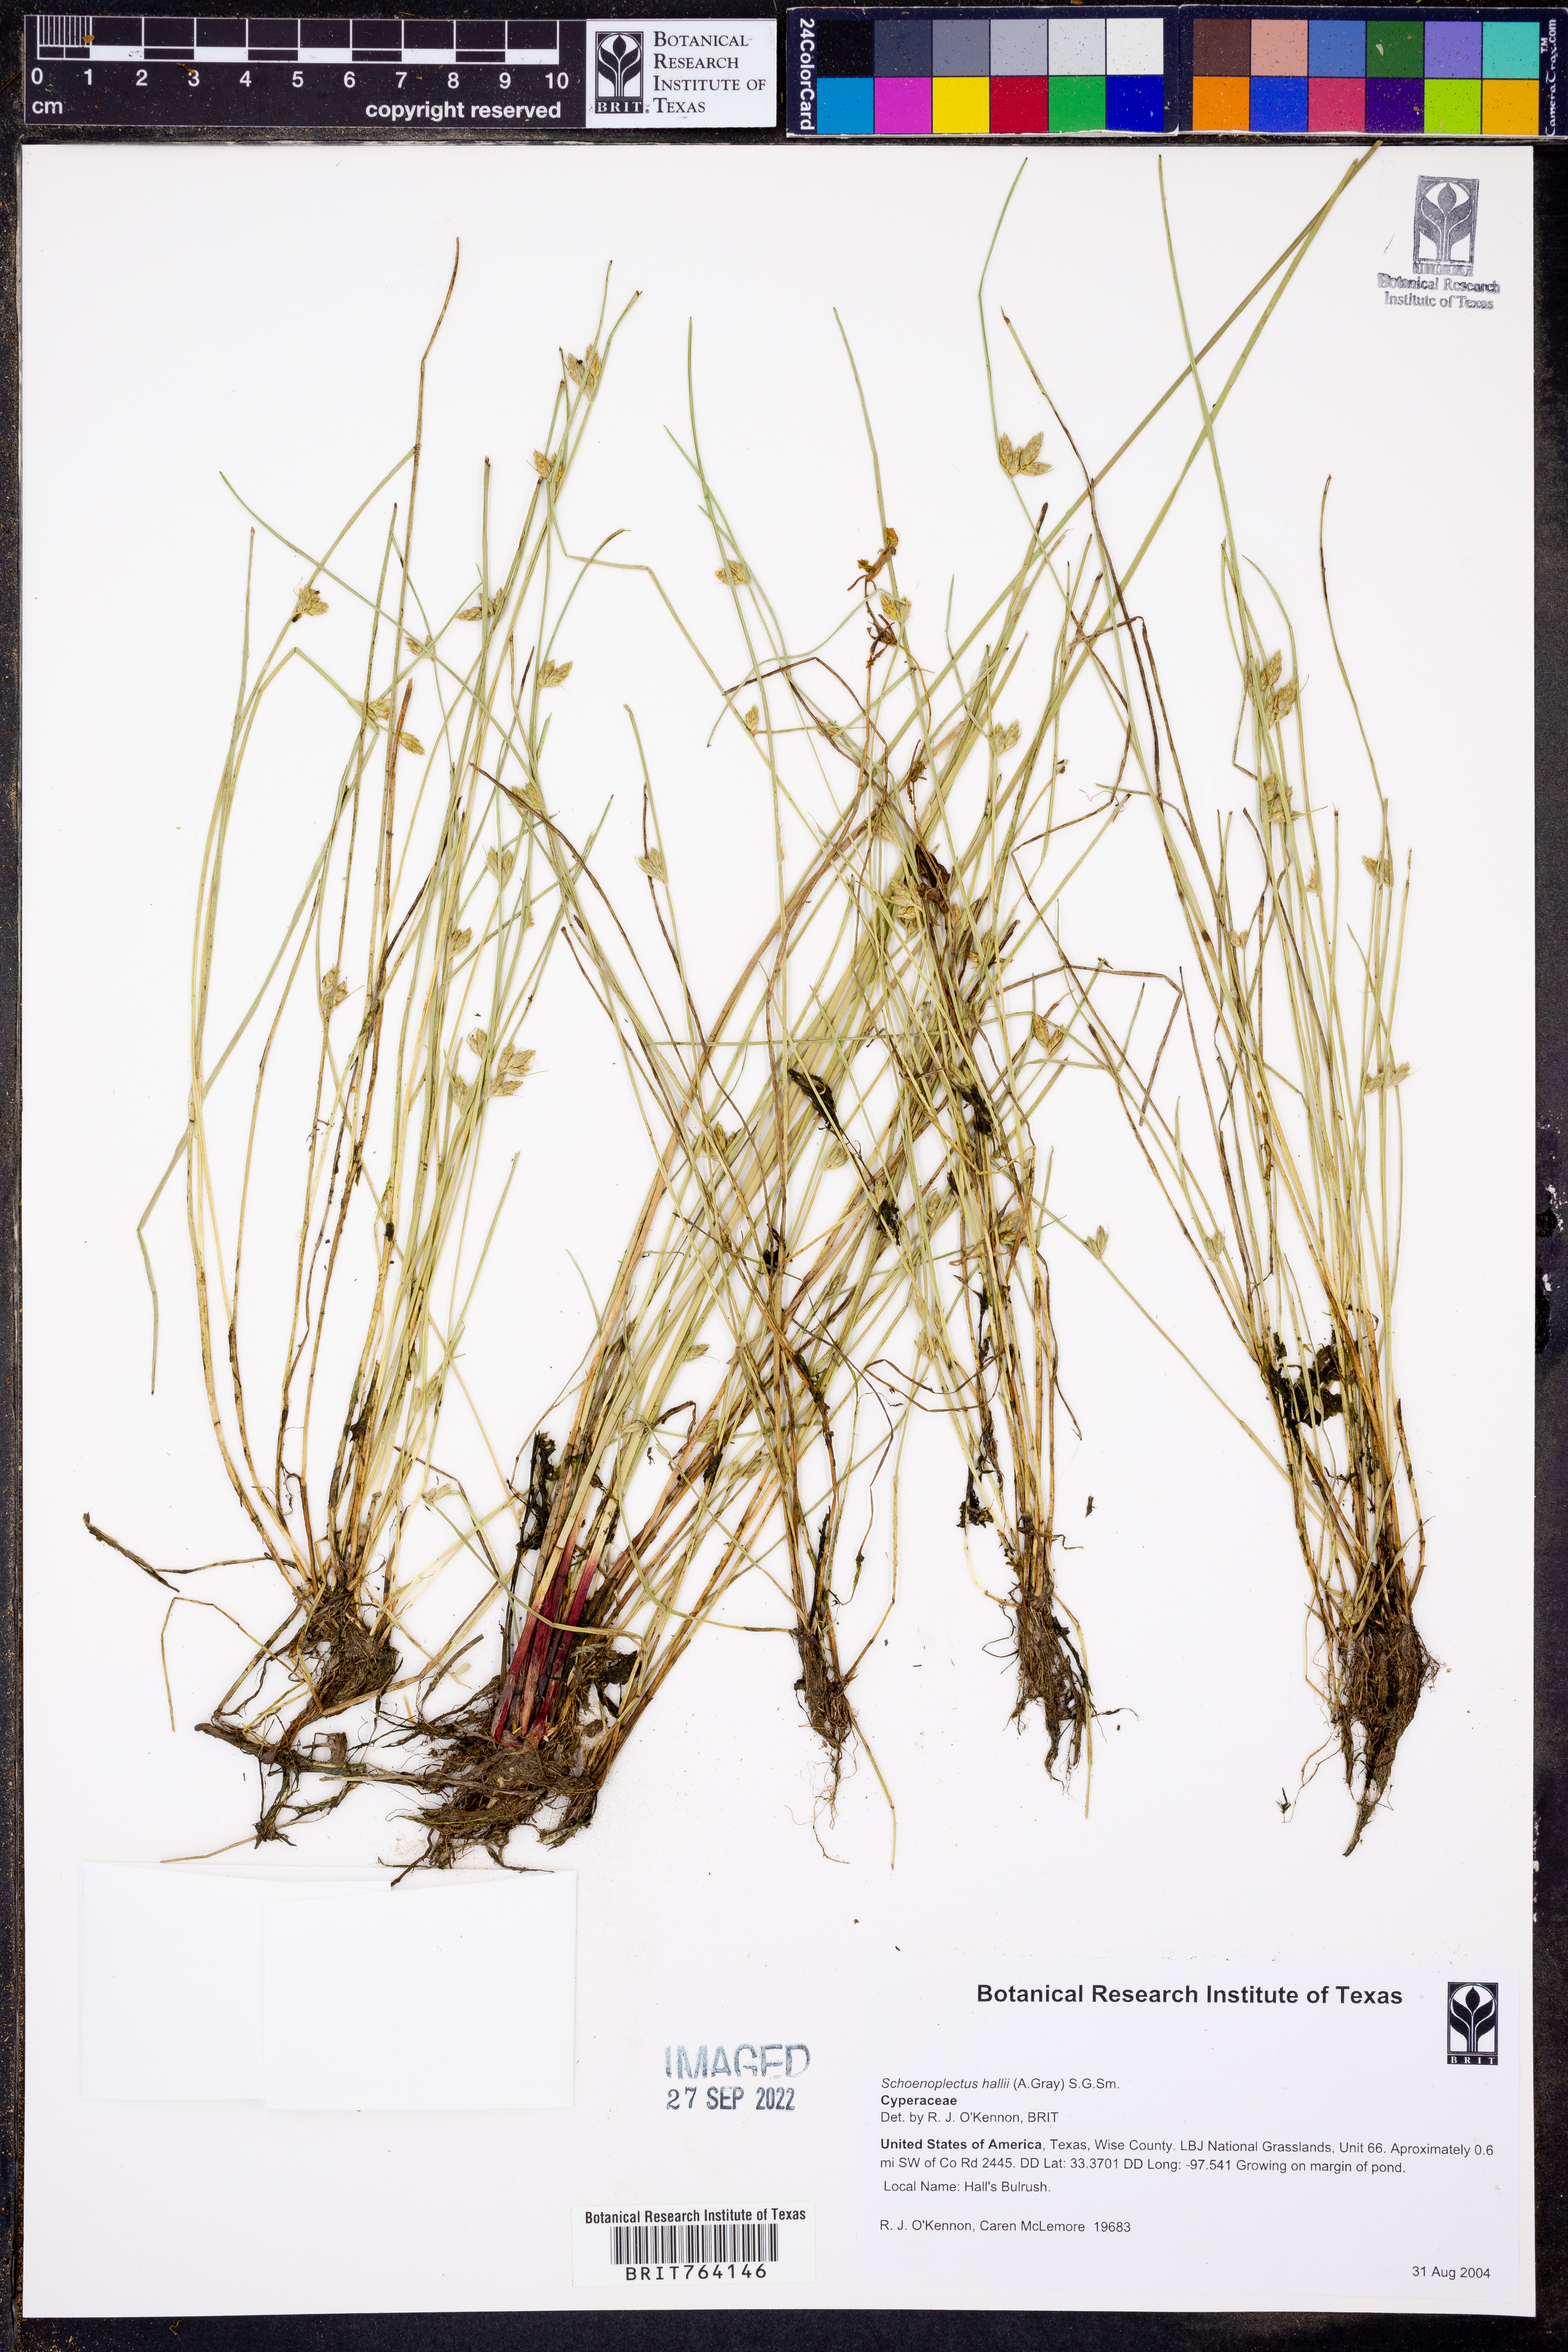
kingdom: Plantae
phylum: Tracheophyta
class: Liliopsida
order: Poales
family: Cyperaceae
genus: Schoenoplectiella
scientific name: Schoenoplectiella hallii
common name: Hall's bullrush
